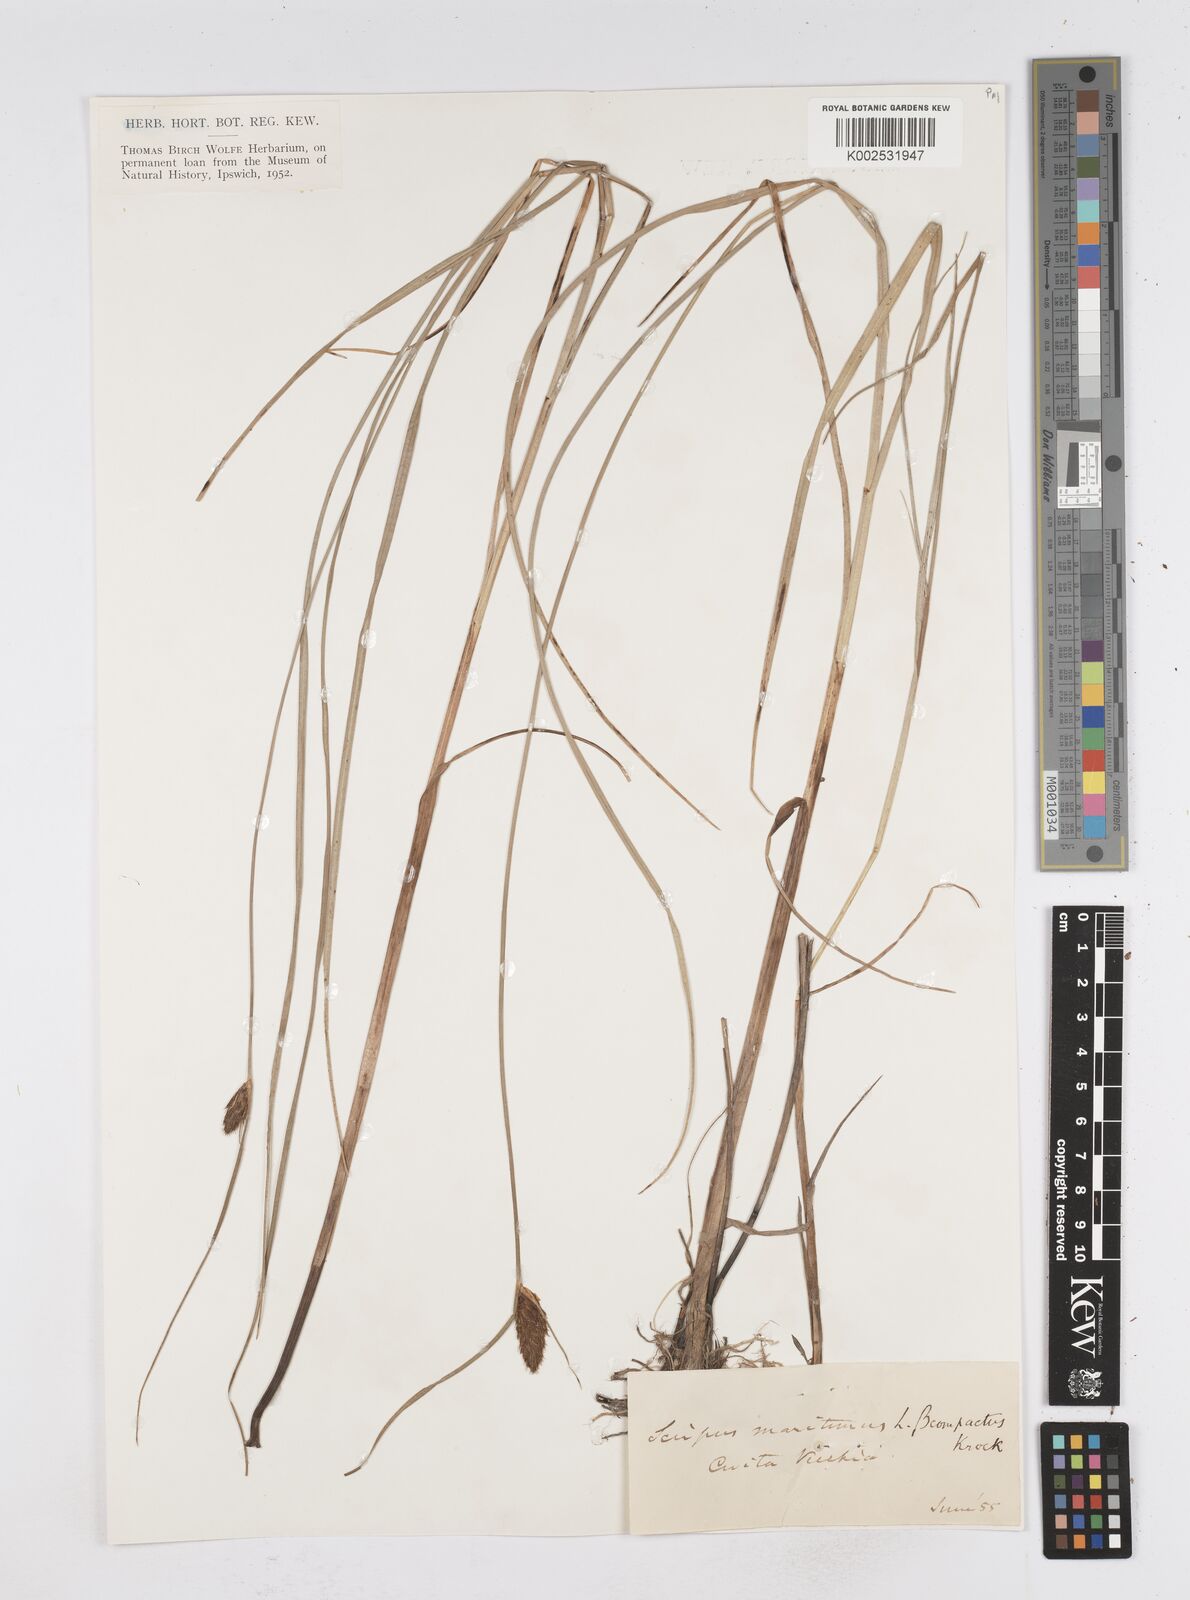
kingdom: Plantae
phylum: Tracheophyta
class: Liliopsida
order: Poales
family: Cyperaceae
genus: Bolboschoenus
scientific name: Bolboschoenus maritimus
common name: Sea club-rush
